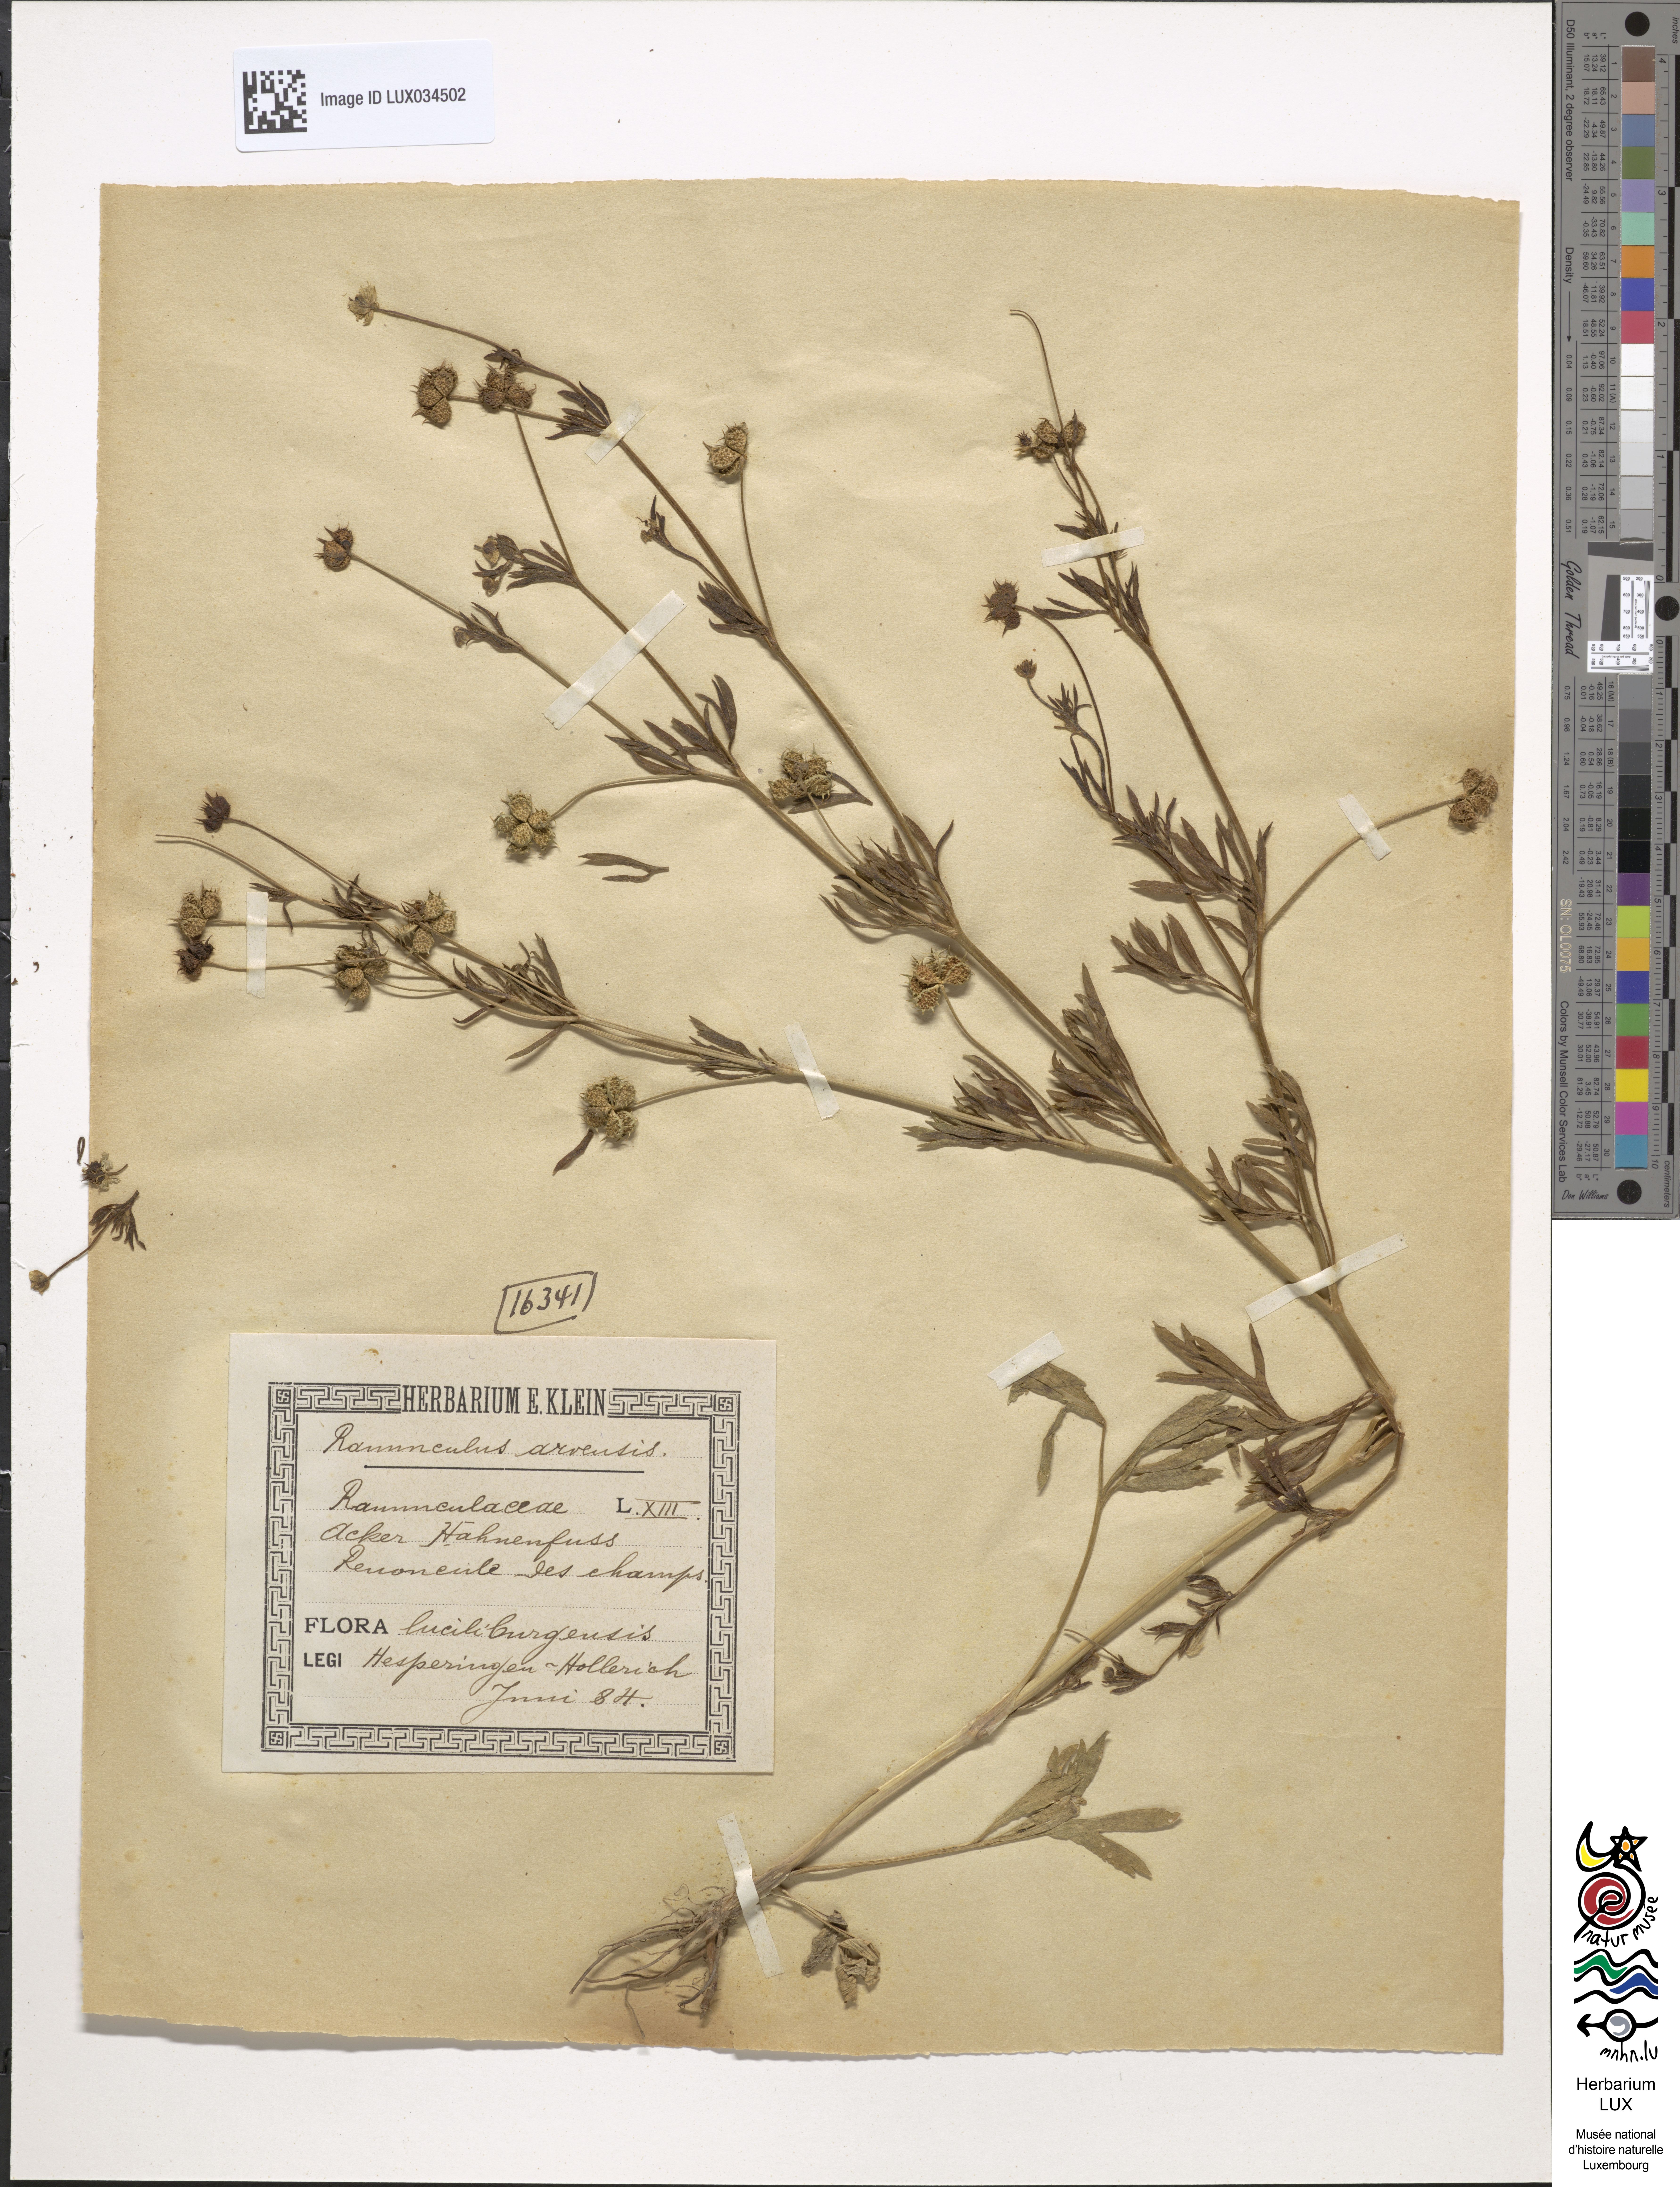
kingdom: Plantae
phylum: Tracheophyta
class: Magnoliopsida
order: Ranunculales
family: Ranunculaceae
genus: Ranunculus
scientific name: Ranunculus arvensis
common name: Corn buttercup
